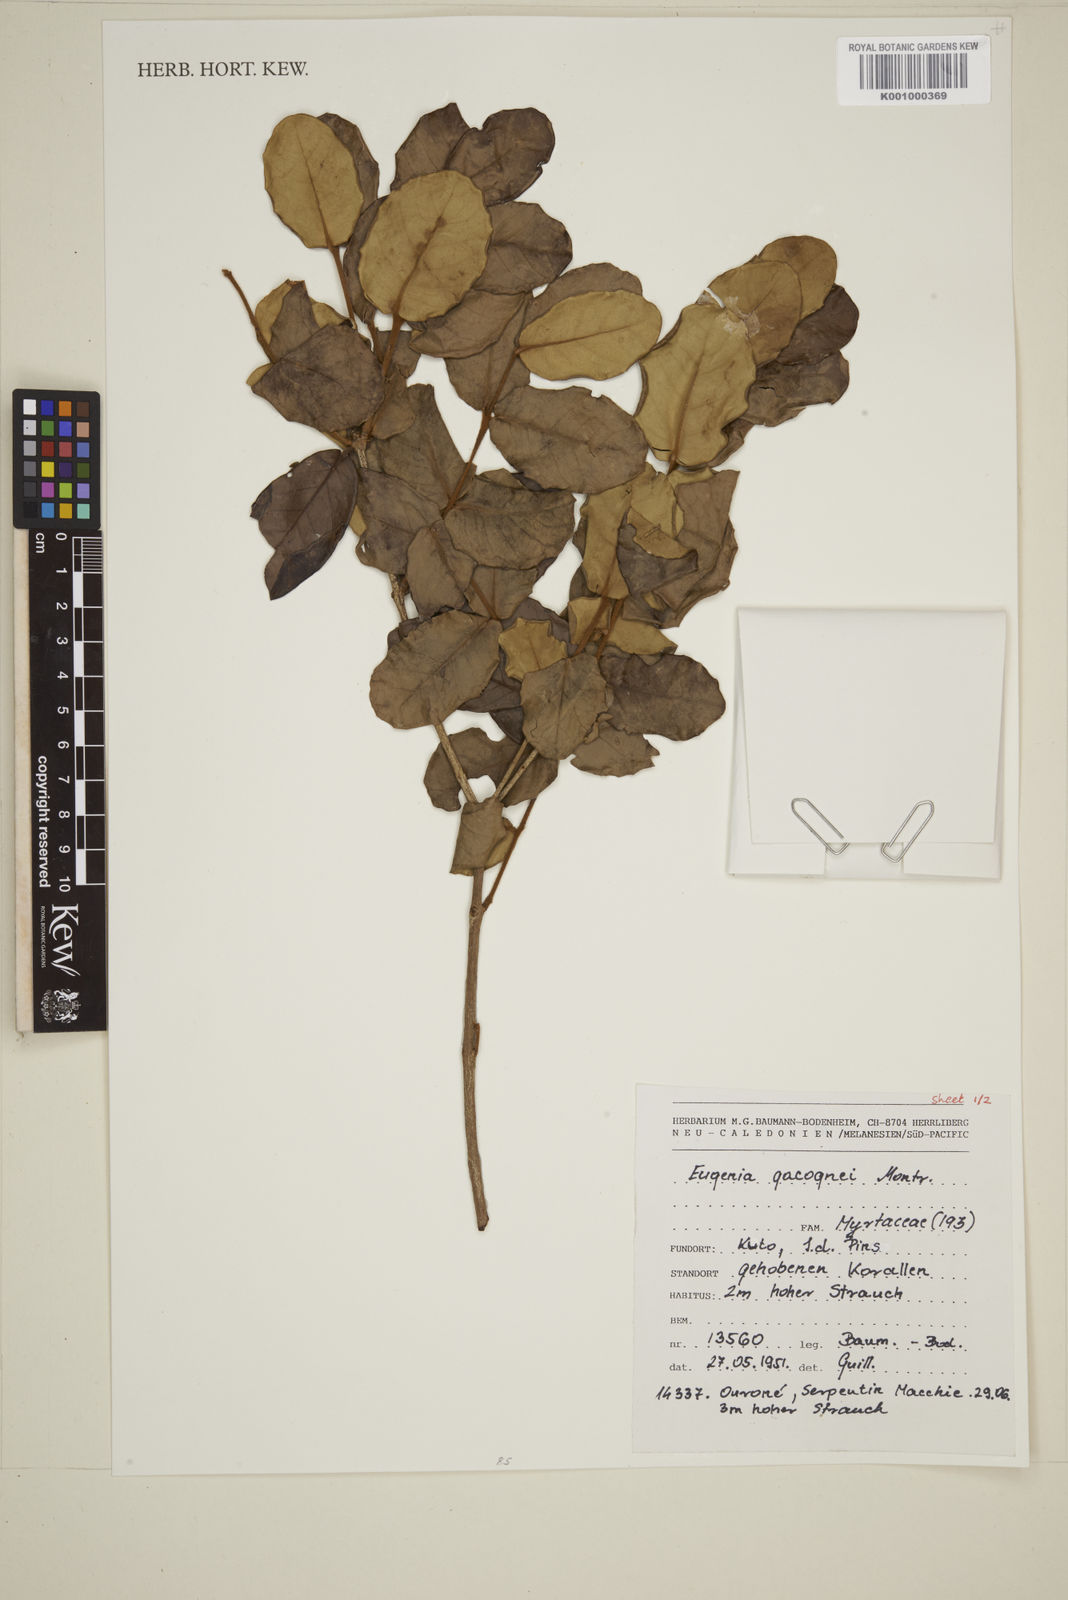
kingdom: Plantae
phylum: Tracheophyta
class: Magnoliopsida
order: Myrtales
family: Myrtaceae
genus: Eugenia
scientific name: Eugenia gacognei
